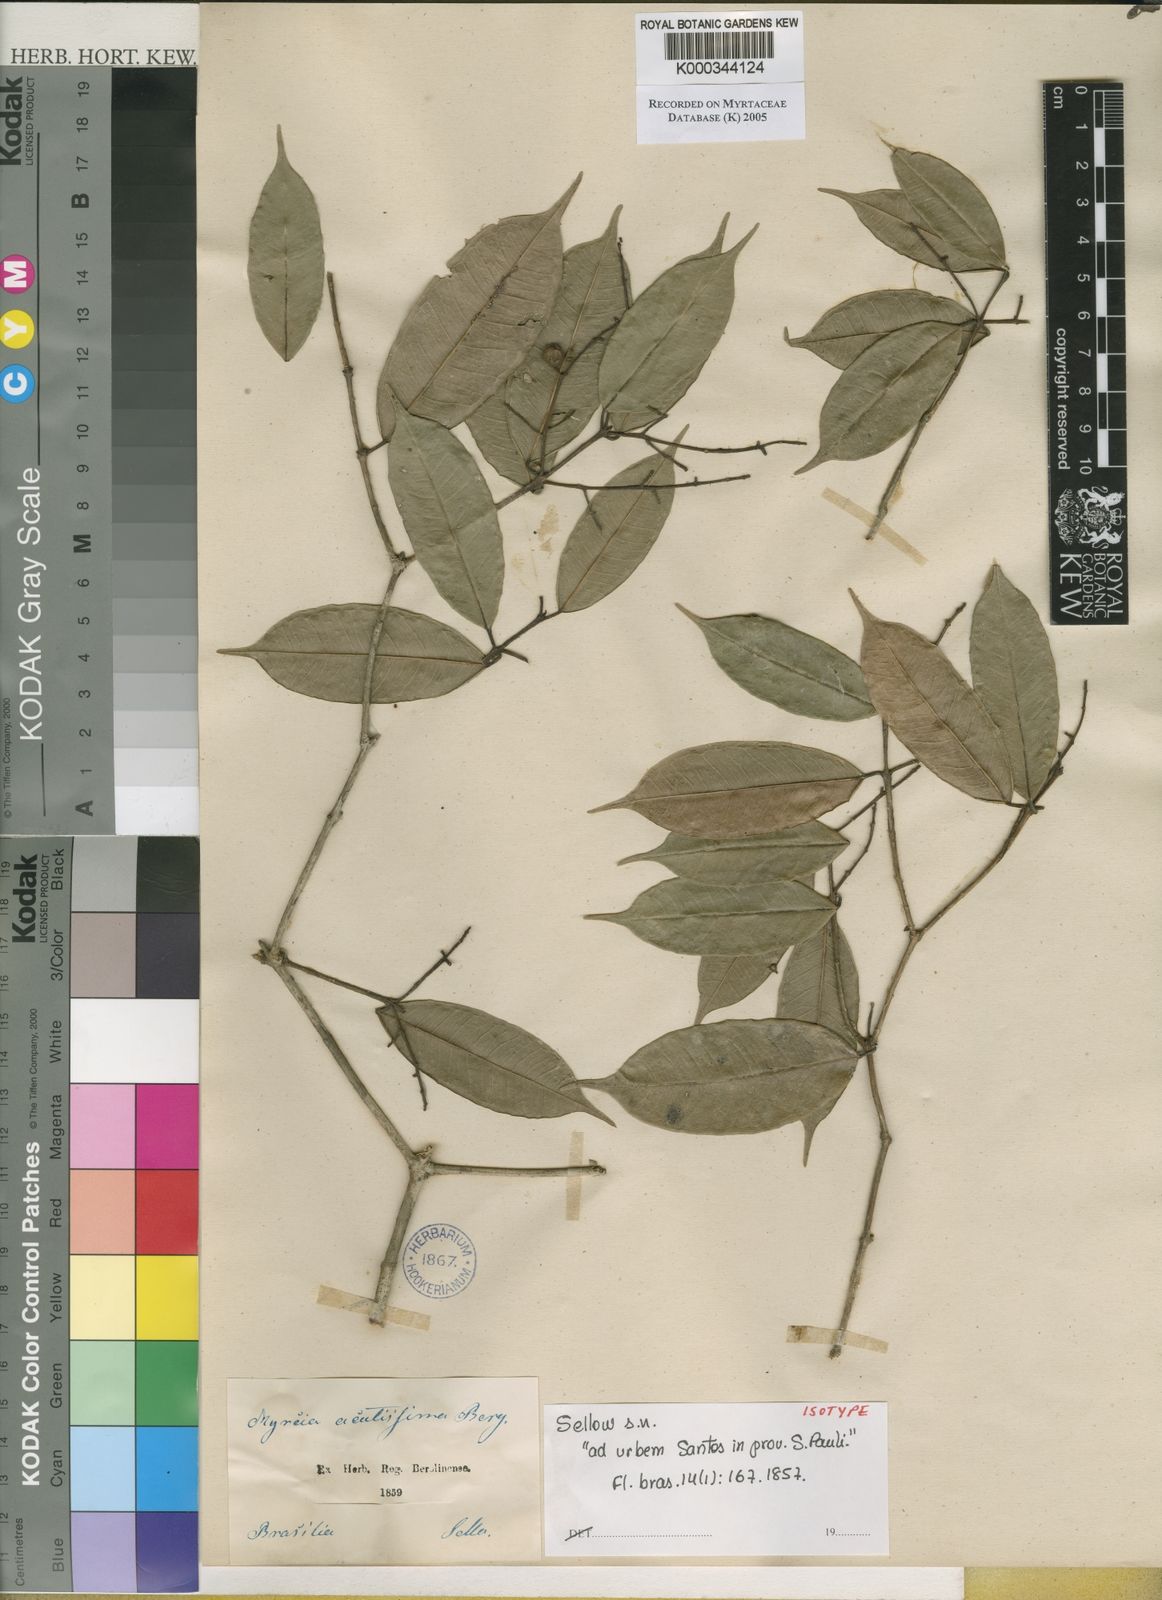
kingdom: Plantae
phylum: Tracheophyta
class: Magnoliopsida
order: Myrtales
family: Myrtaceae
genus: Myrcia
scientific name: Myrcia racemosa
